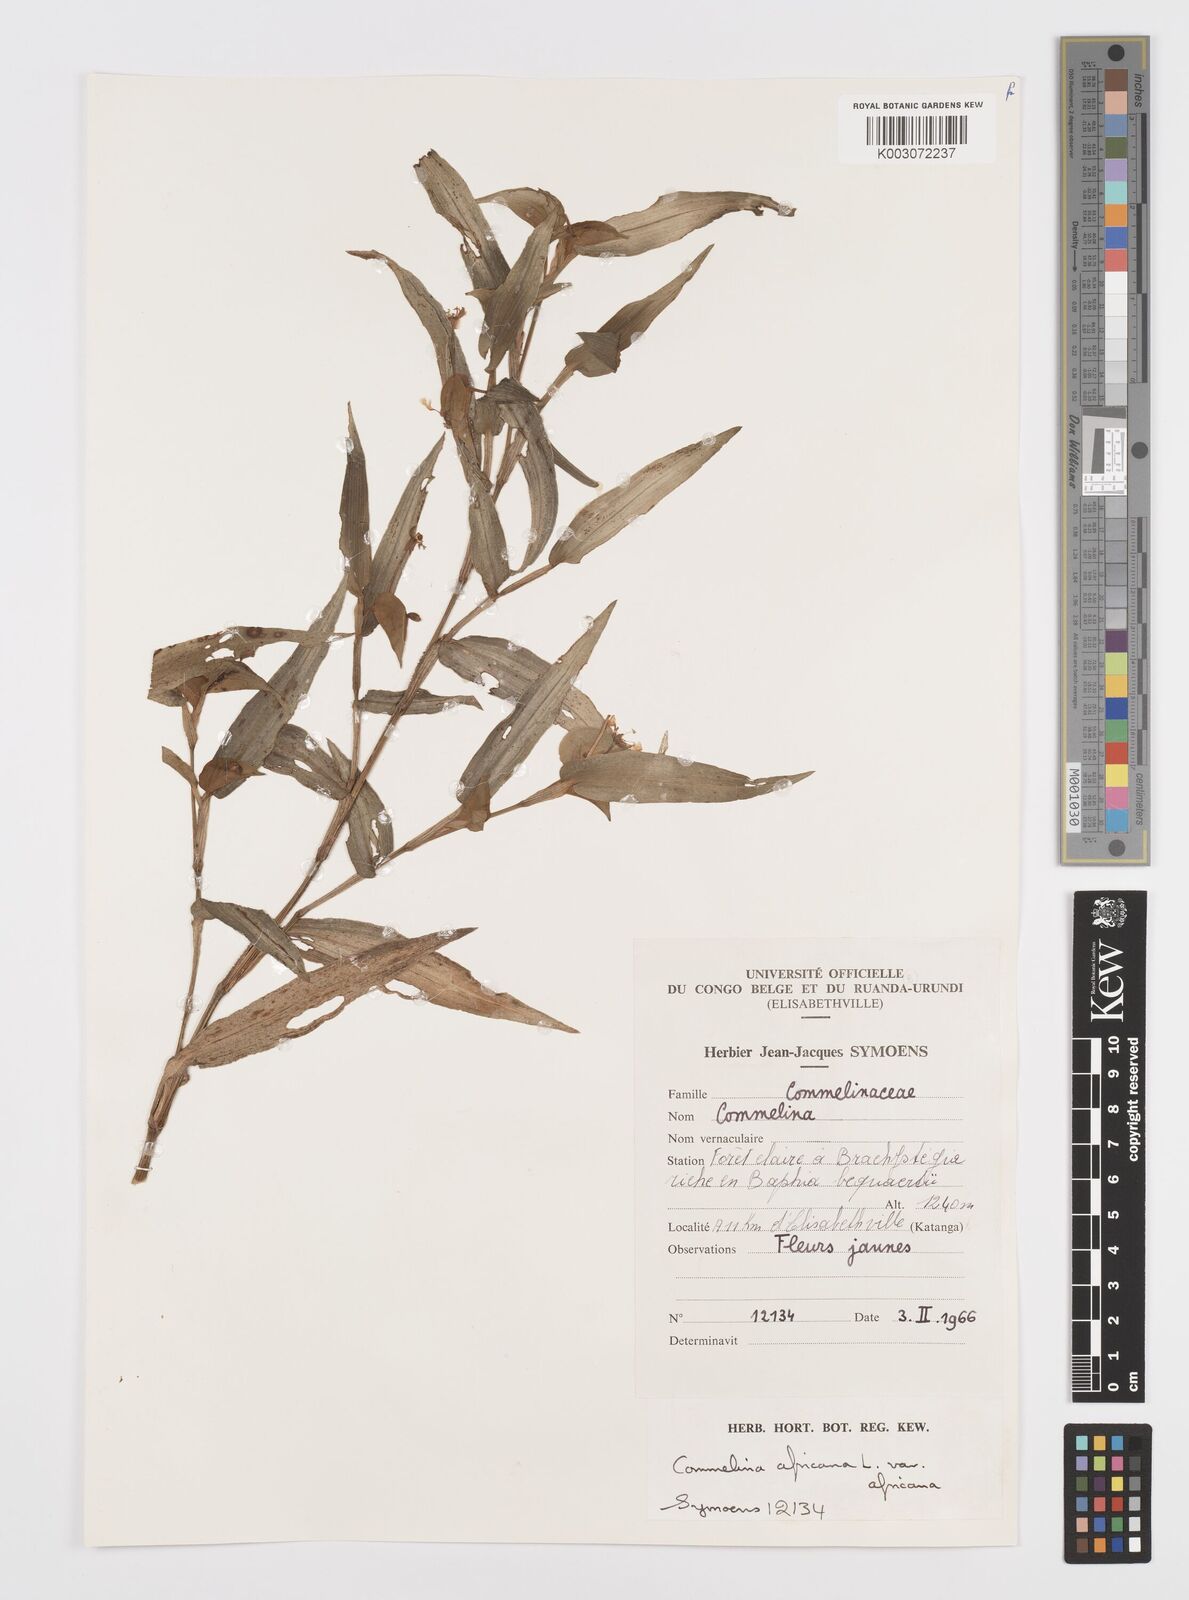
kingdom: Plantae
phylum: Tracheophyta
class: Liliopsida
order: Commelinales
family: Commelinaceae
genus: Commelina
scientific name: Commelina africana
